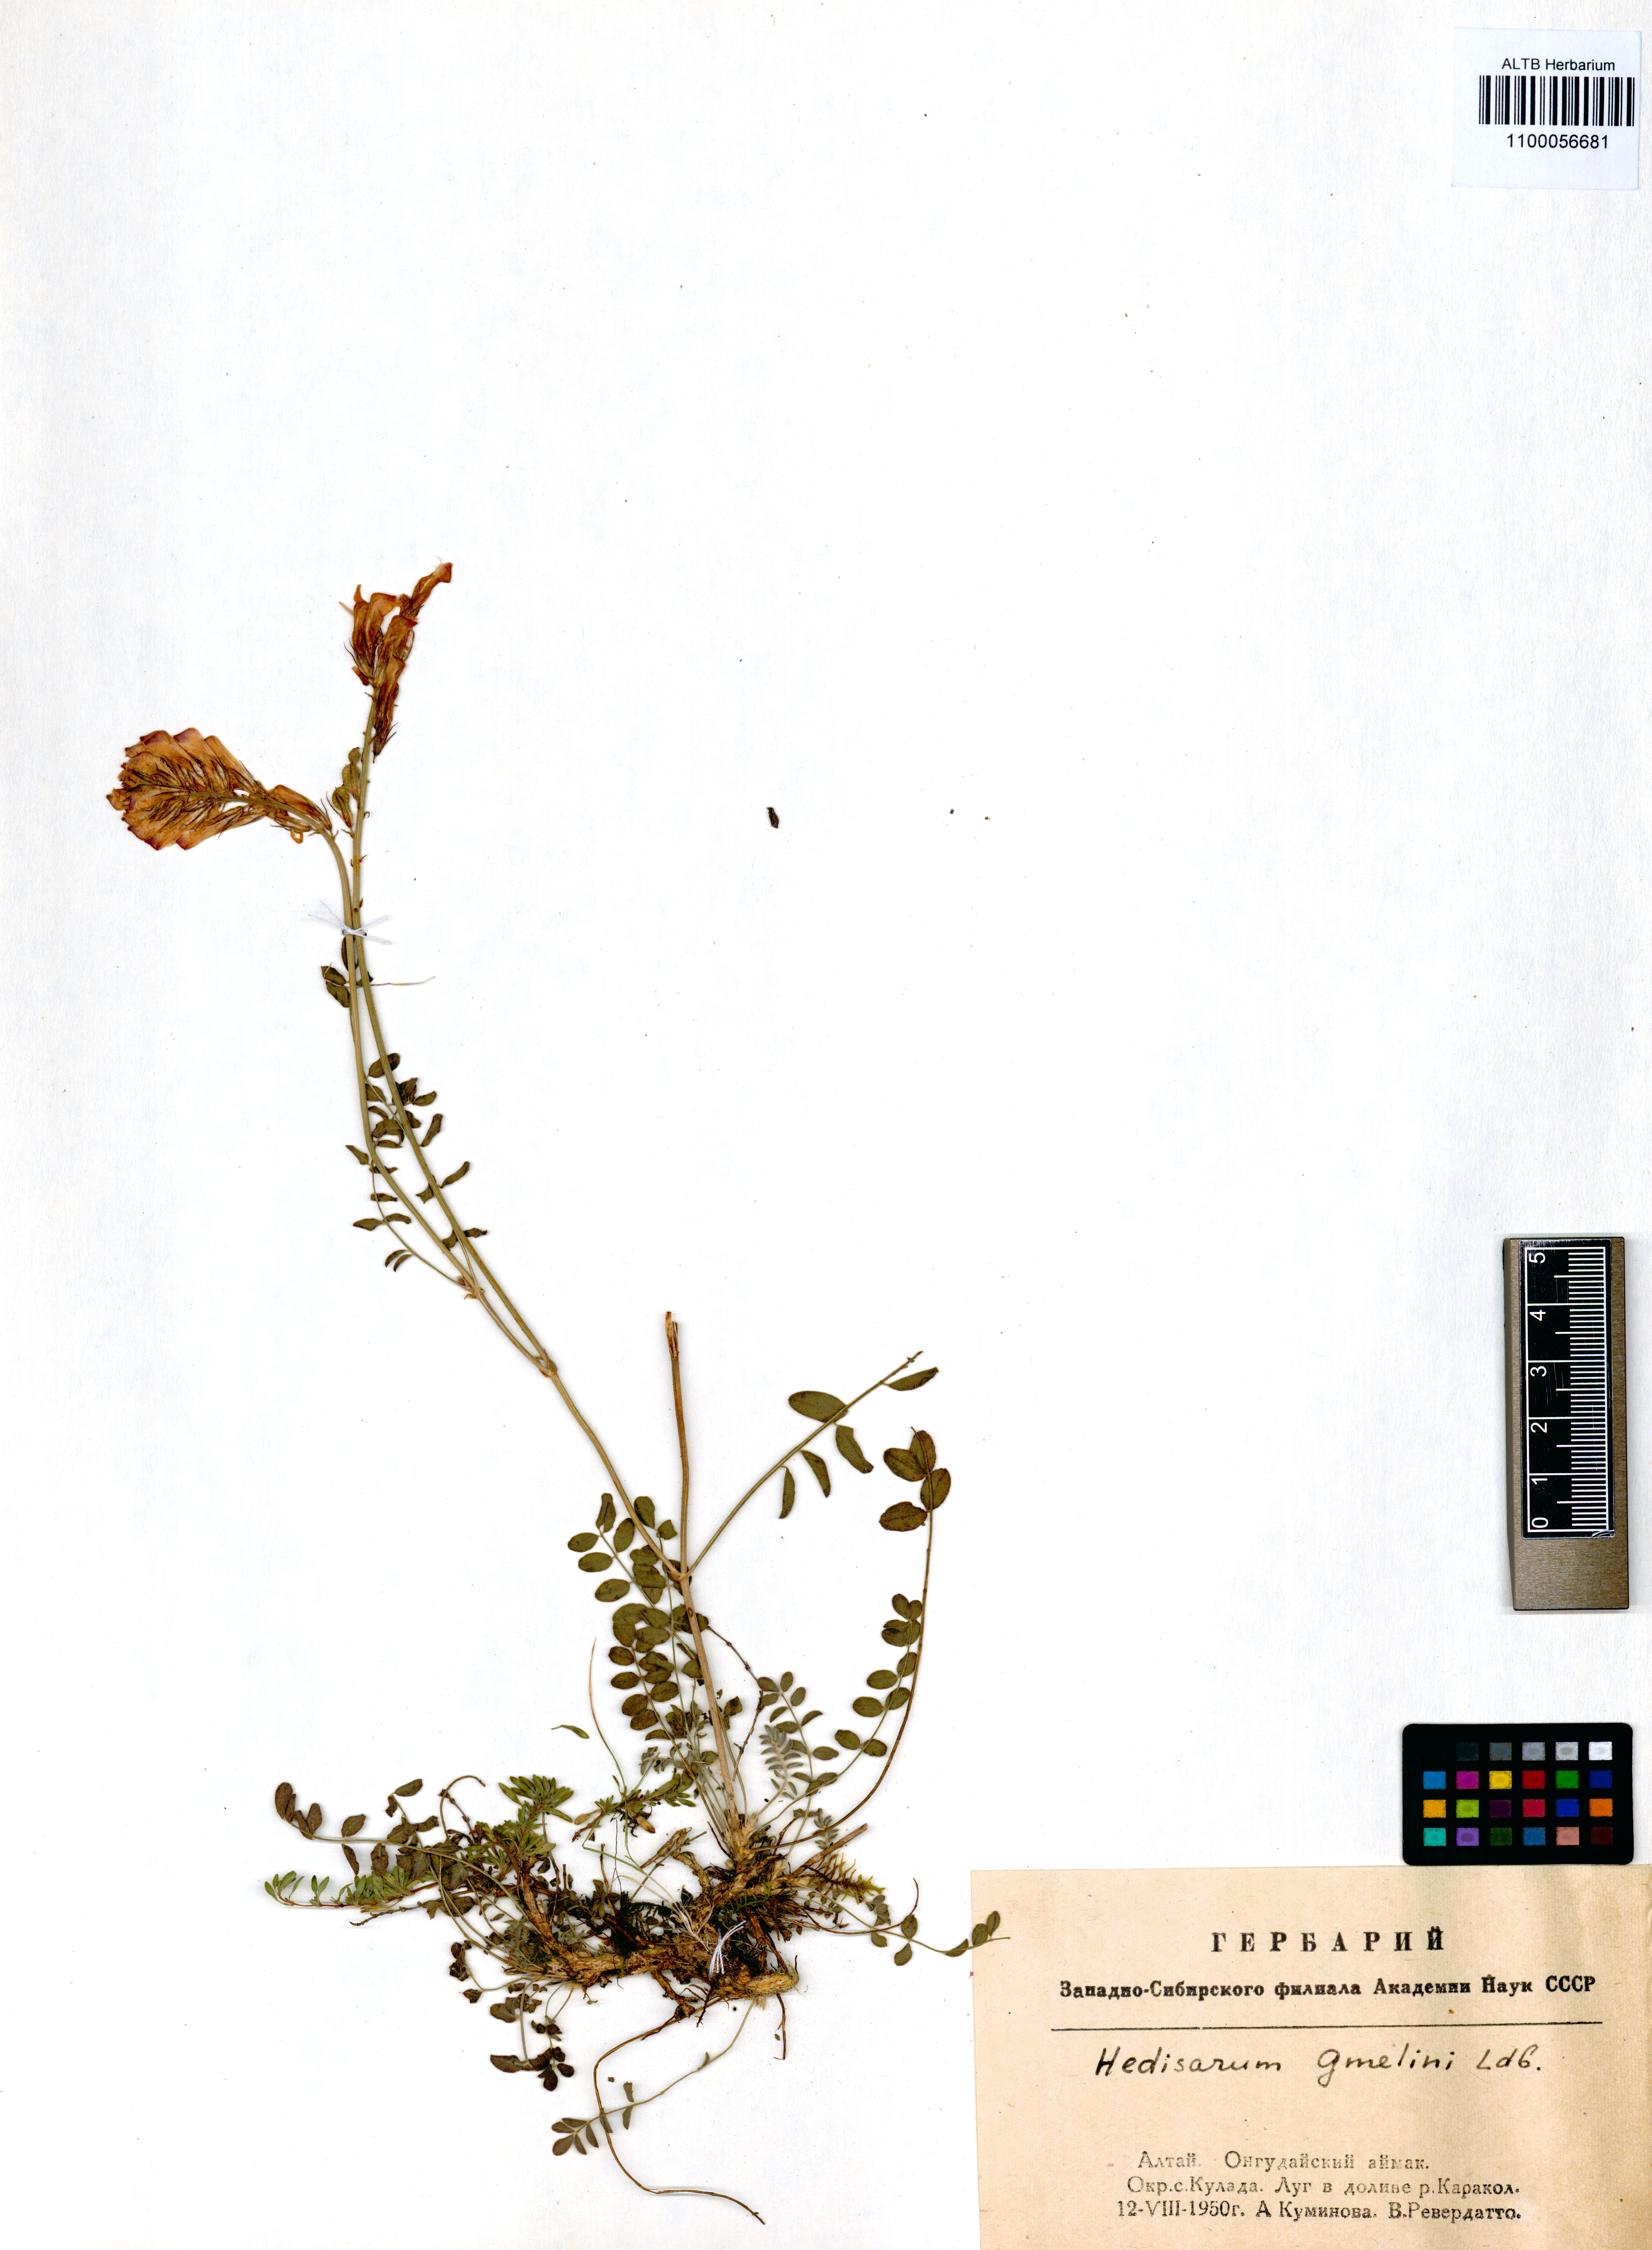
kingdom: Plantae
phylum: Tracheophyta
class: Magnoliopsida
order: Fabales
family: Fabaceae
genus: Hedysarum
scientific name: Hedysarum gmelinii
